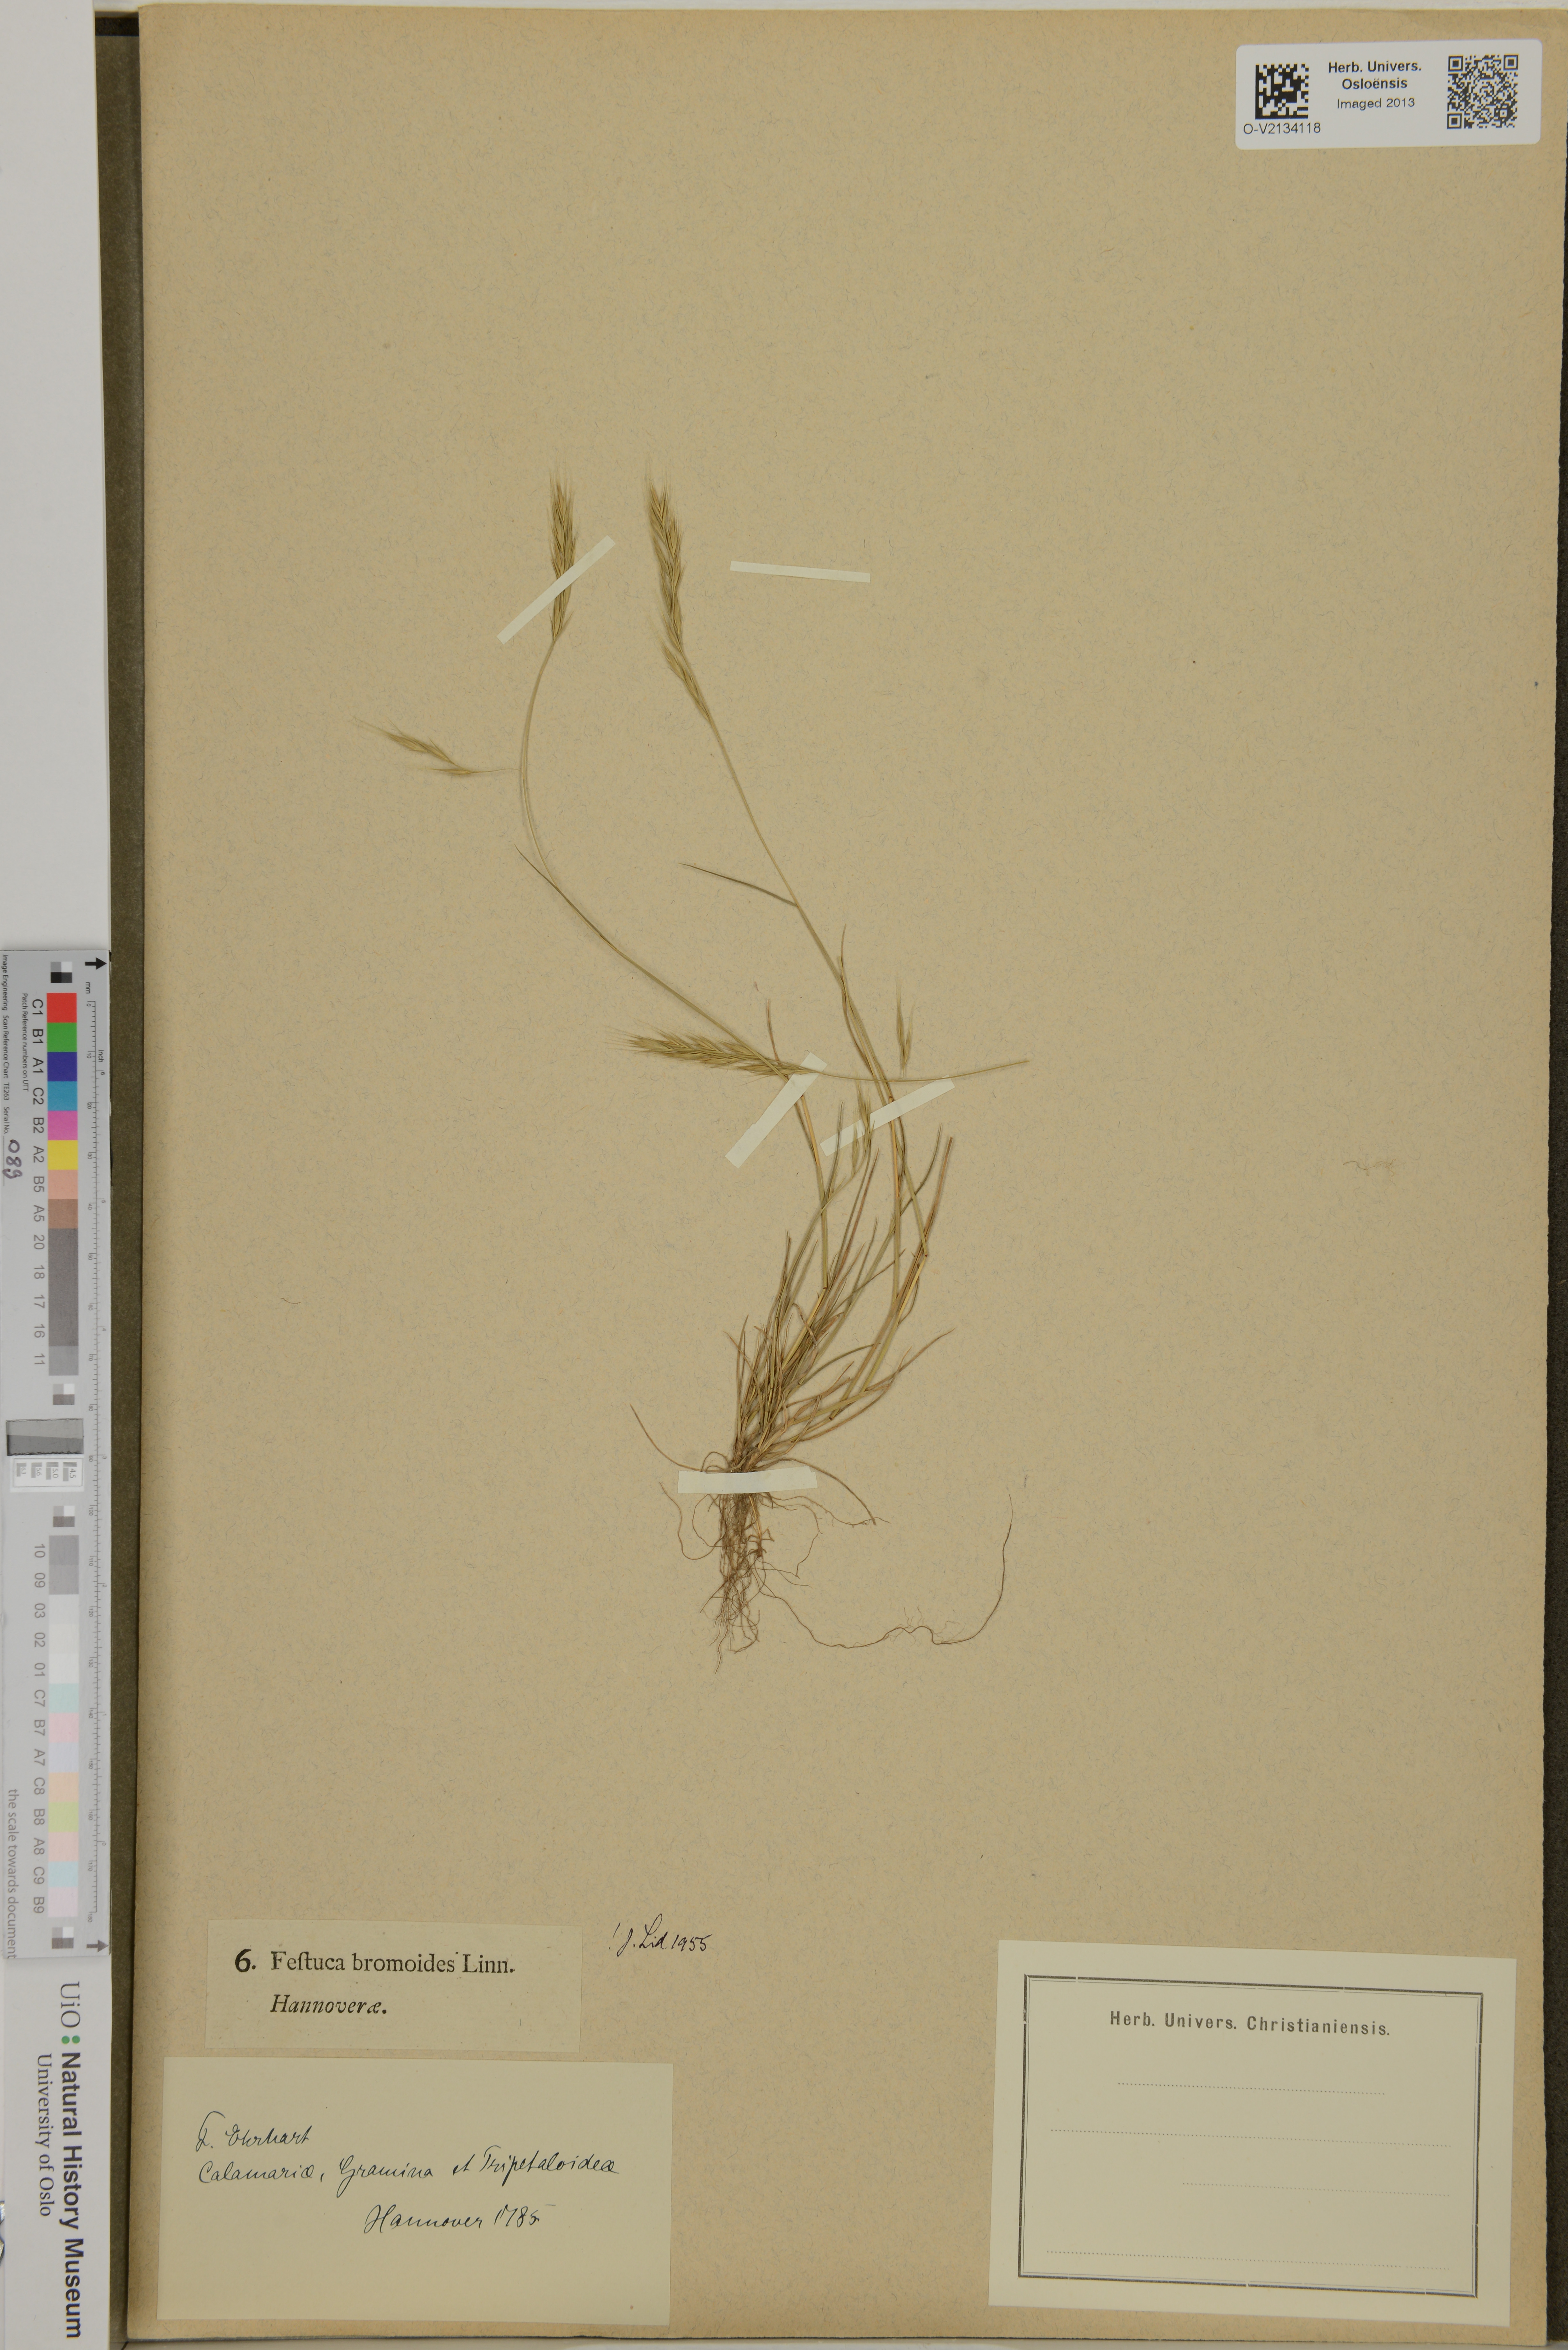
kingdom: Plantae
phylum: Tracheophyta
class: Liliopsida
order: Poales
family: Poaceae
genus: Festuca
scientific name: Festuca bromoides
